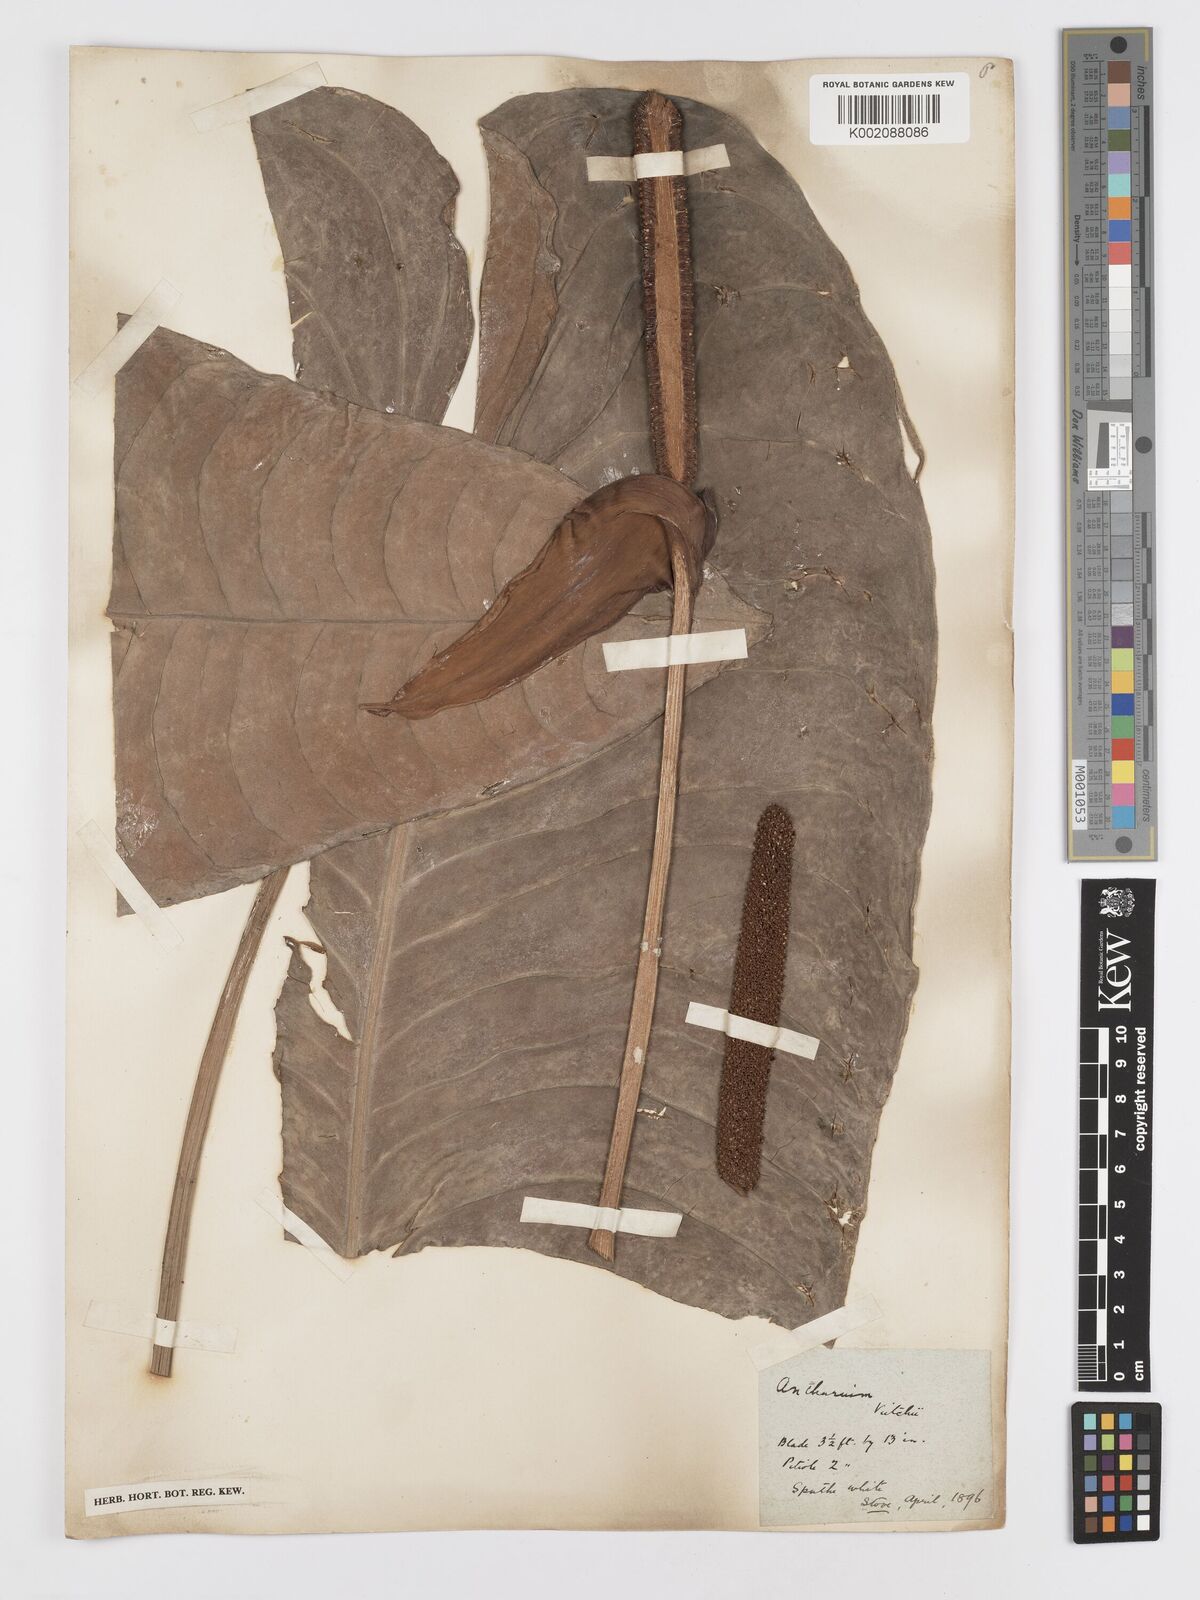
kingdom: Plantae
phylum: Tracheophyta
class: Liliopsida
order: Alismatales
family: Araceae
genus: Anthurium
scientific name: Anthurium veitchii
